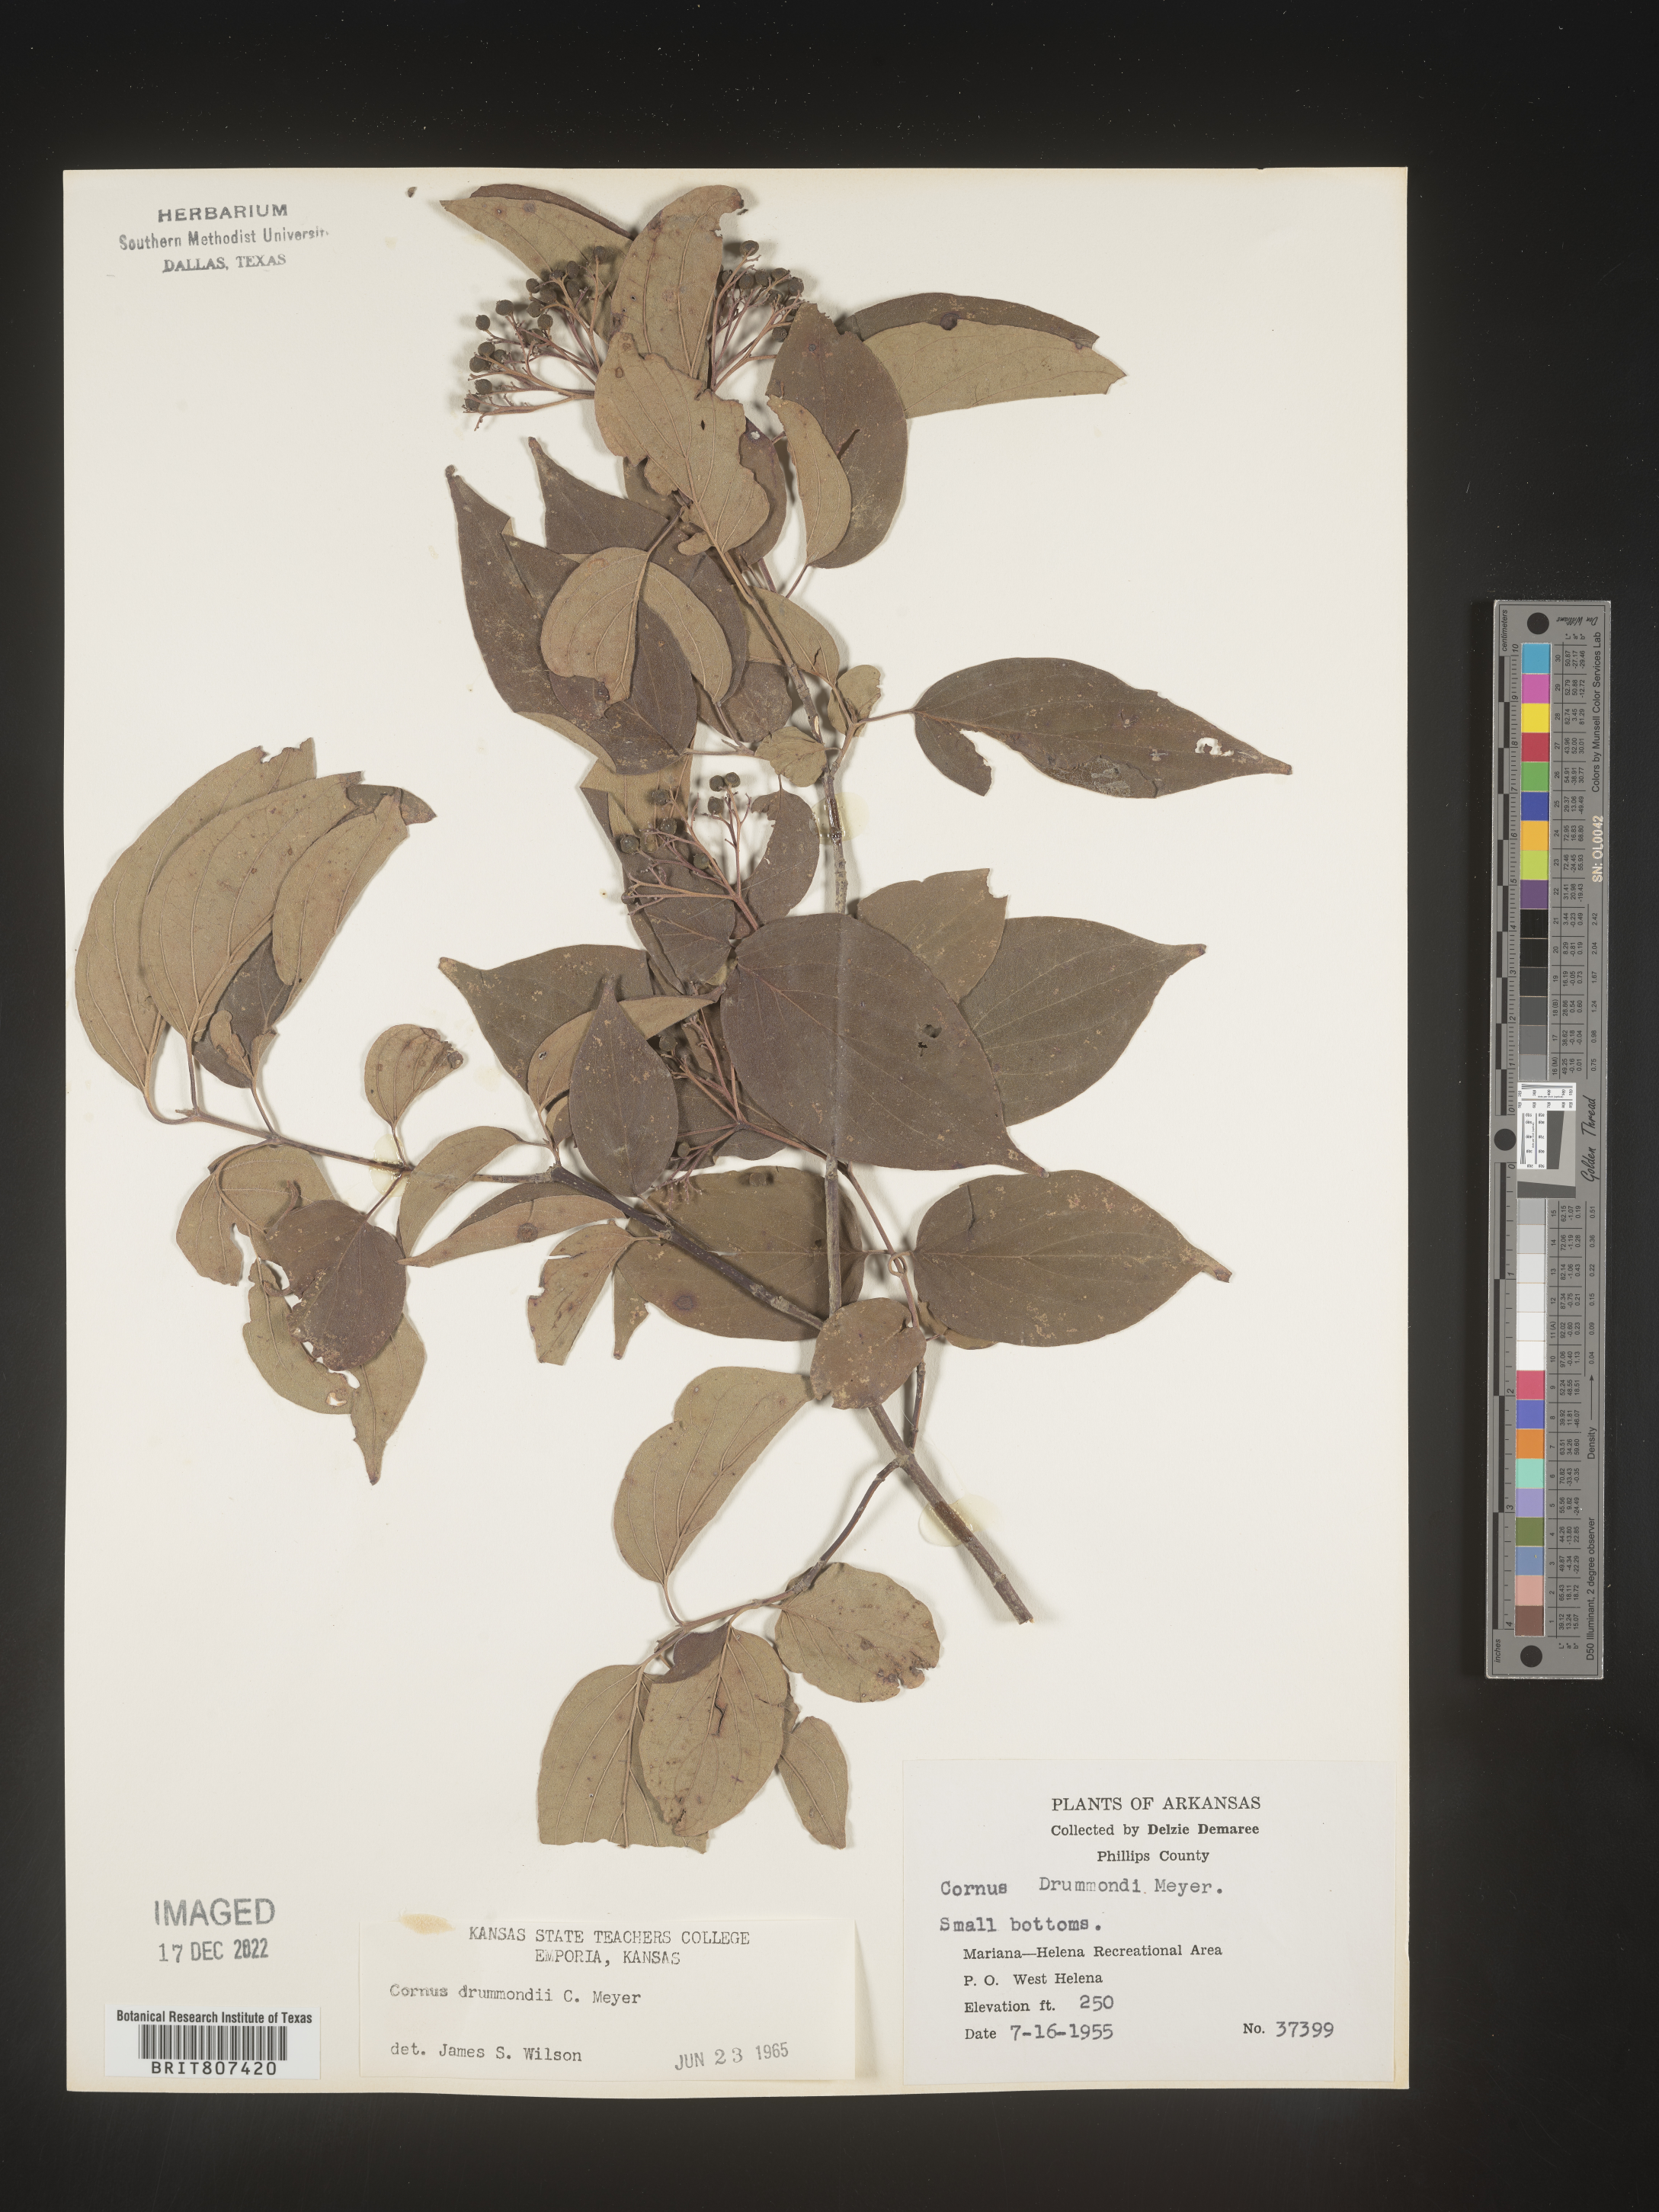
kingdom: Plantae
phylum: Tracheophyta
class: Magnoliopsida
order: Cornales
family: Cornaceae
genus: Cornus
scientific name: Cornus drummondii
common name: Rough-leaf dogwood
